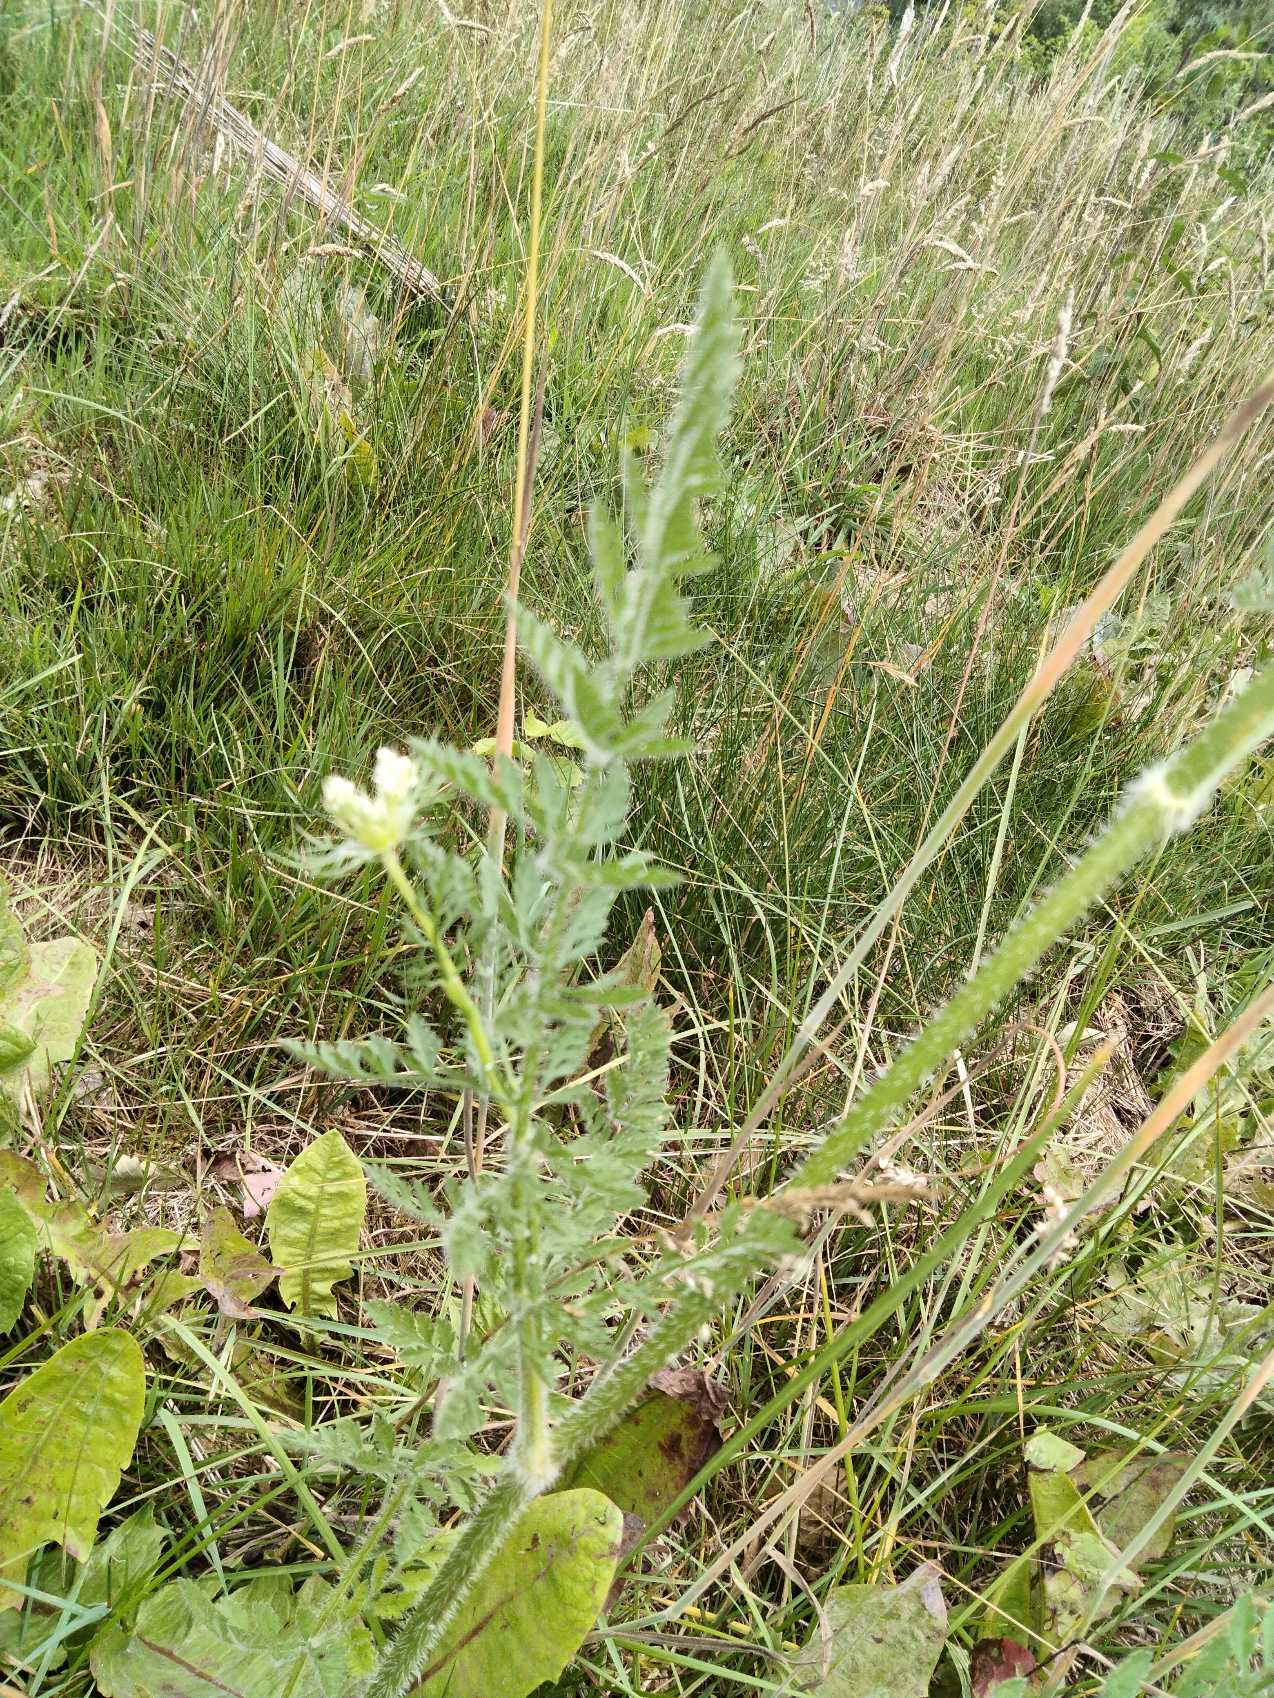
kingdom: Plantae
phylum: Tracheophyta
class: Magnoliopsida
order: Apiales
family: Apiaceae
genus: Daucus
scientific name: Daucus carota
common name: Gulerod
